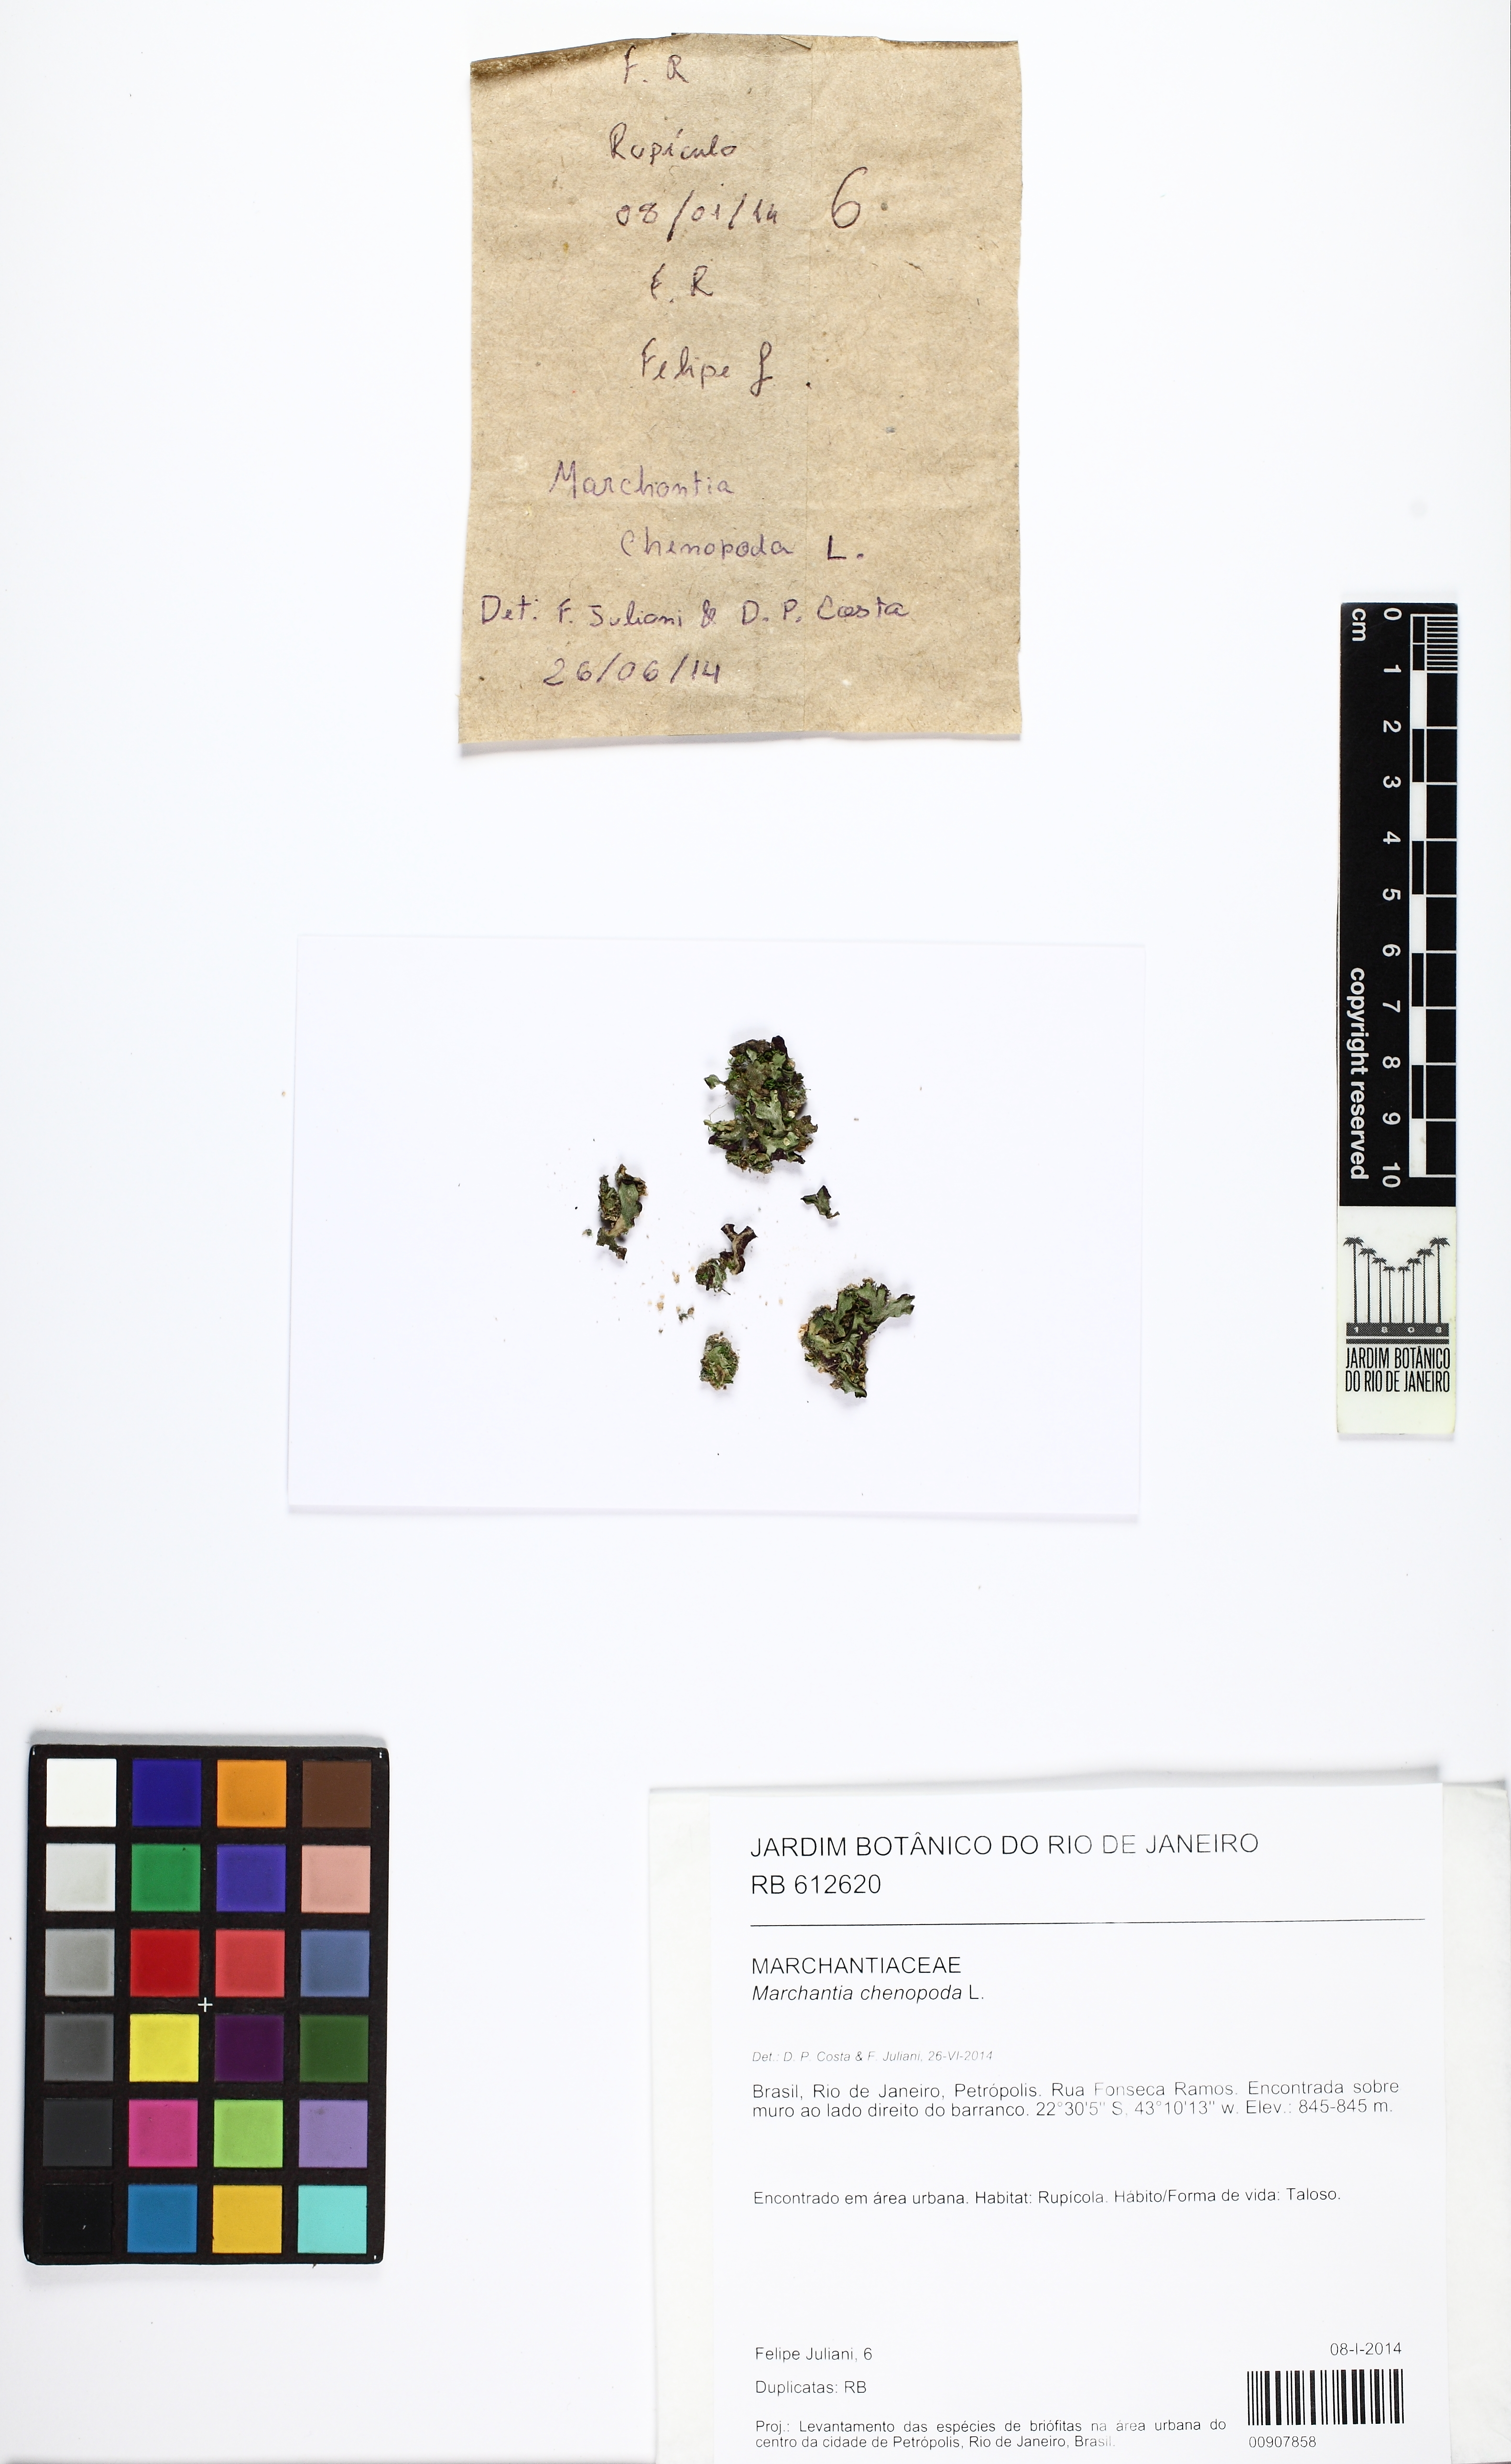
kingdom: Plantae
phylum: Marchantiophyta
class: Marchantiopsida
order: Marchantiales
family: Marchantiaceae
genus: Marchantia
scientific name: Marchantia chenopoda
